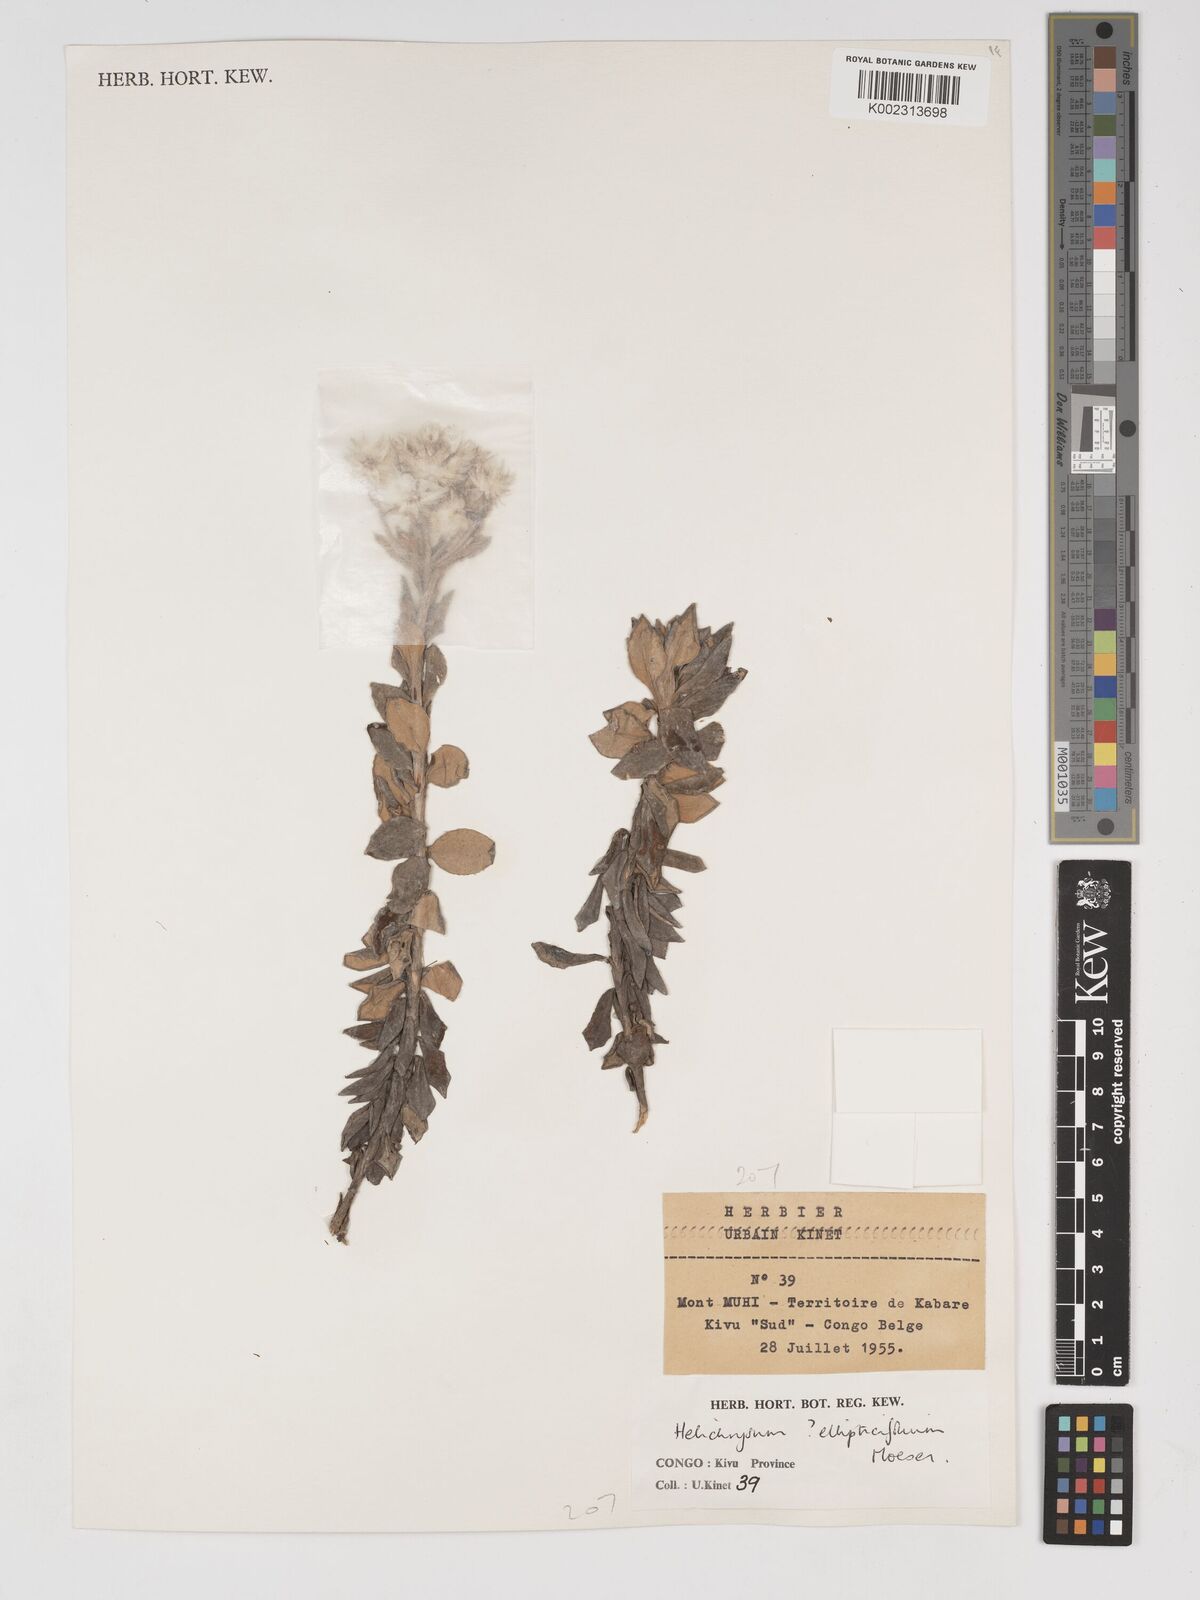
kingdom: Plantae
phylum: Tracheophyta
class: Magnoliopsida
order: Asterales
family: Asteraceae
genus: Helichrysum
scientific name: Helichrysum ellipticifolium
